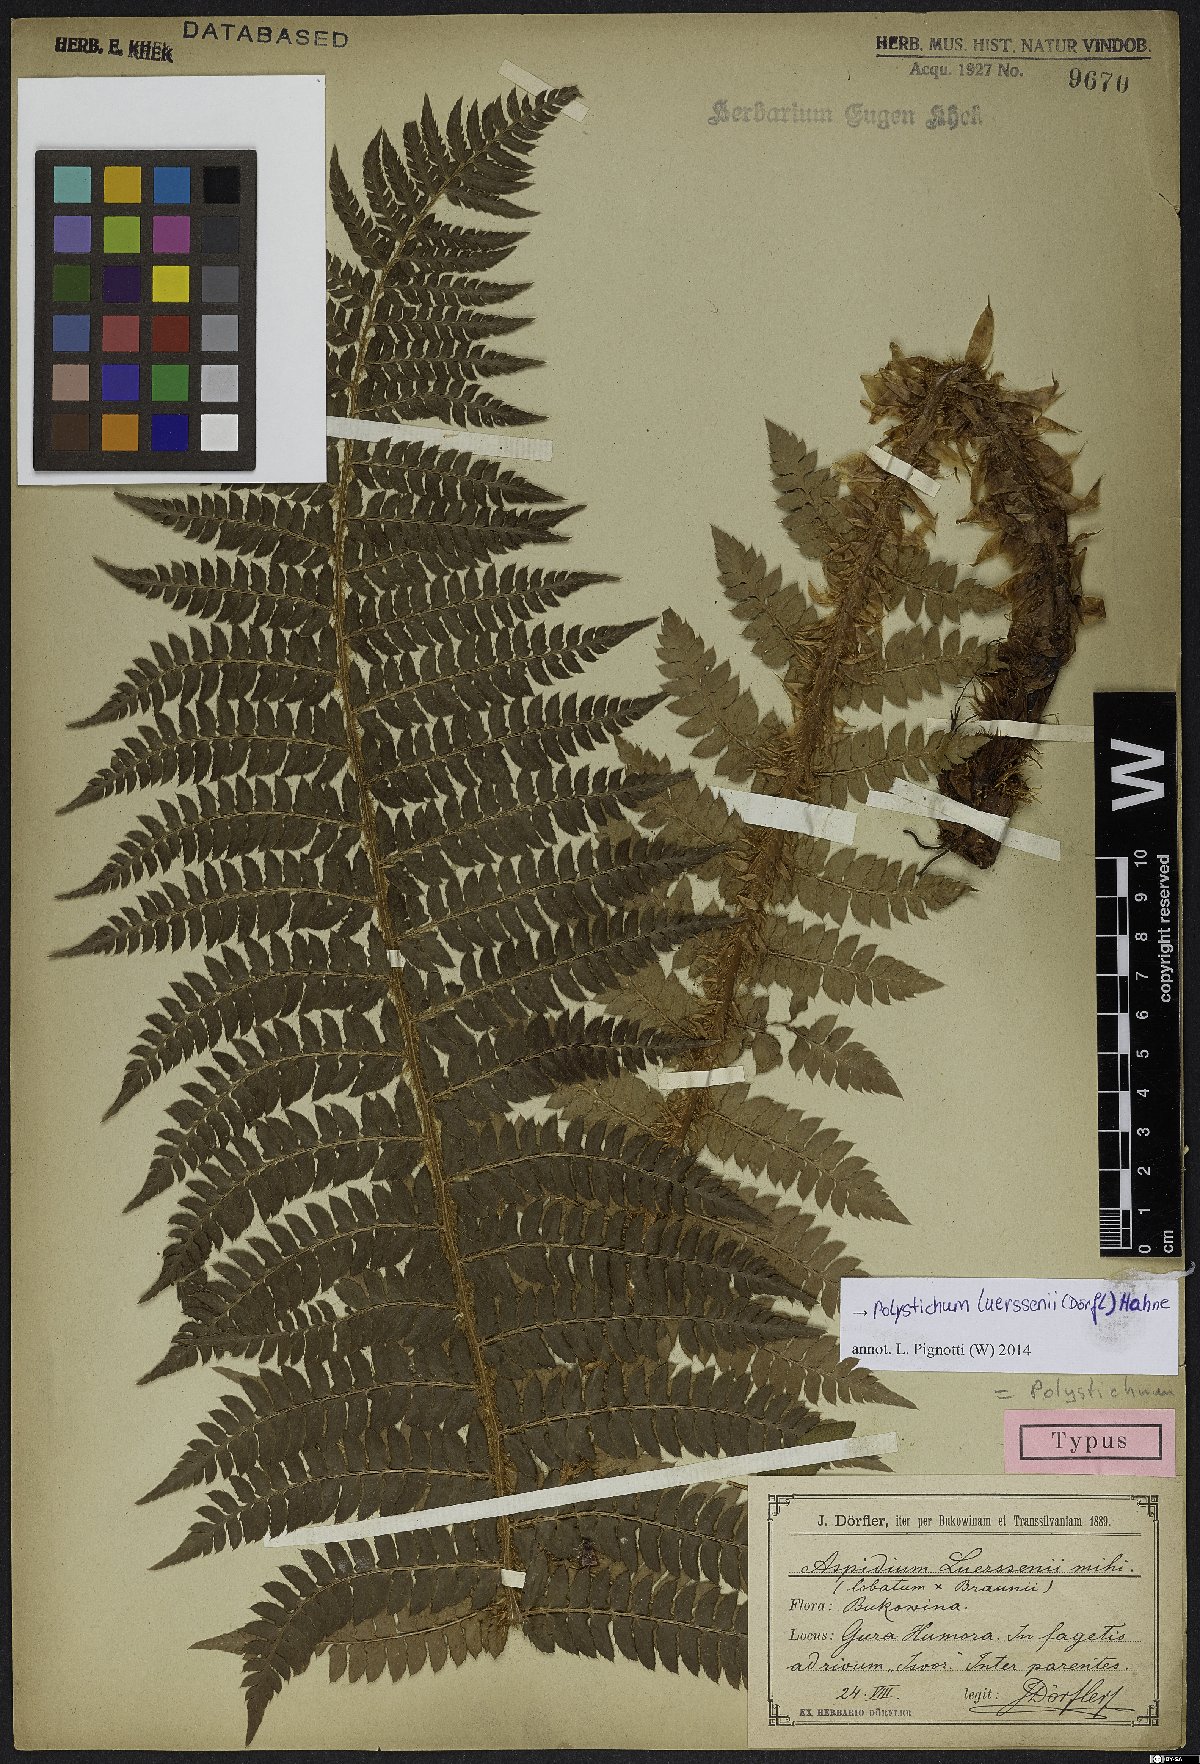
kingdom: Plantae
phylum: Tracheophyta
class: Polypodiopsida
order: Polypodiales
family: Dryopteridaceae
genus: Polystichum
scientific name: Polystichum luerssenii
